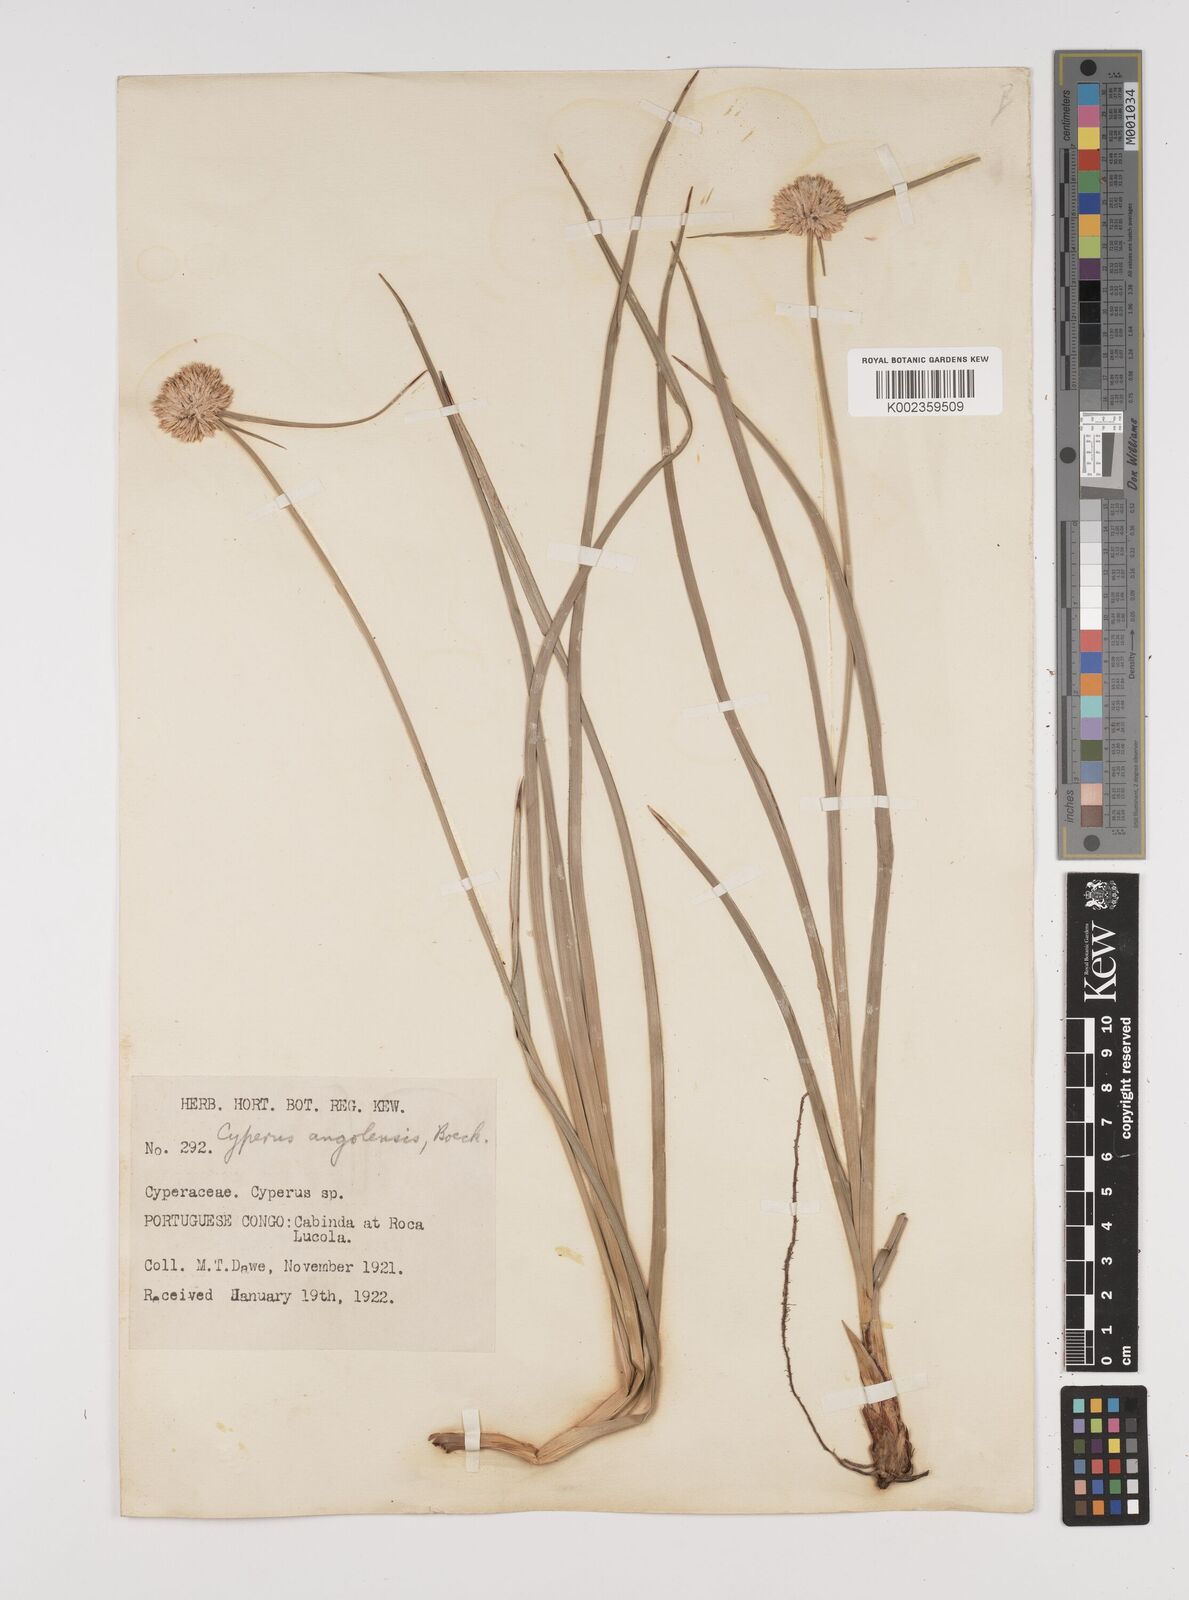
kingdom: Plantae
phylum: Tracheophyta
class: Liliopsida
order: Poales
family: Cyperaceae
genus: Cyperus
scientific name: Cyperus angolensis
